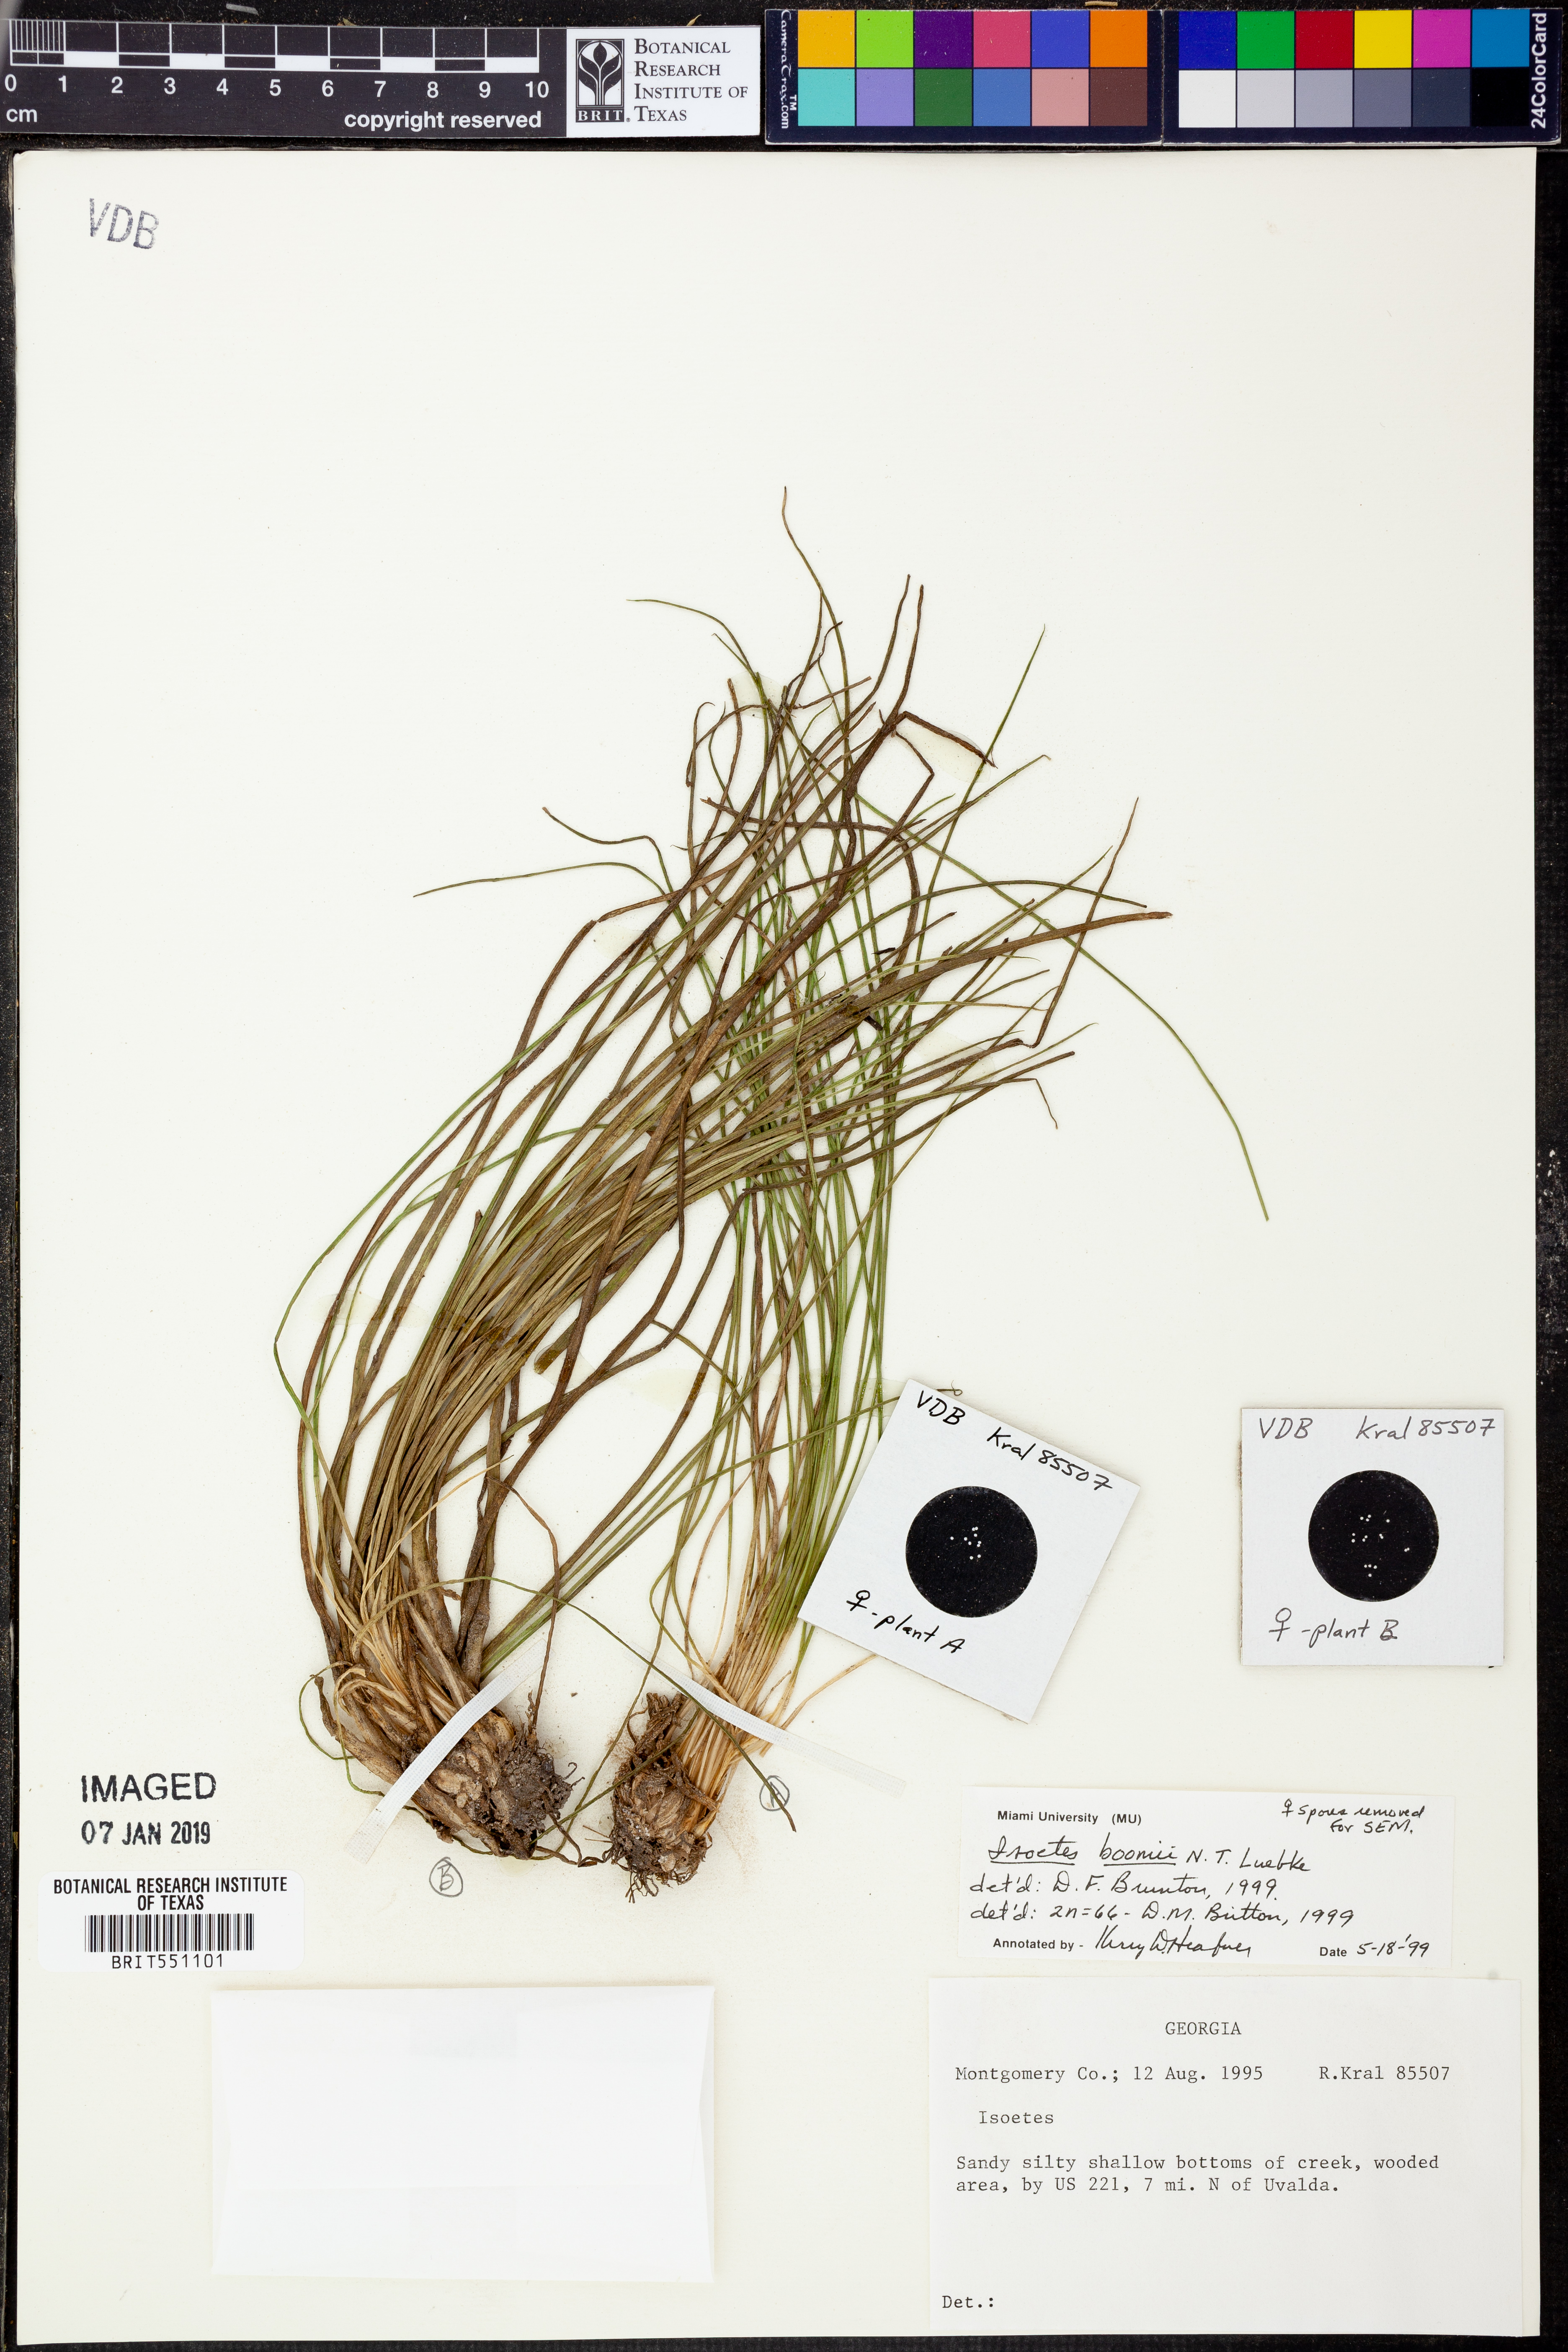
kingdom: Plantae
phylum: Tracheophyta
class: Lycopodiopsida
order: Isoetales
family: Isoetaceae
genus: Isoetes
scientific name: Isoetes boomii
